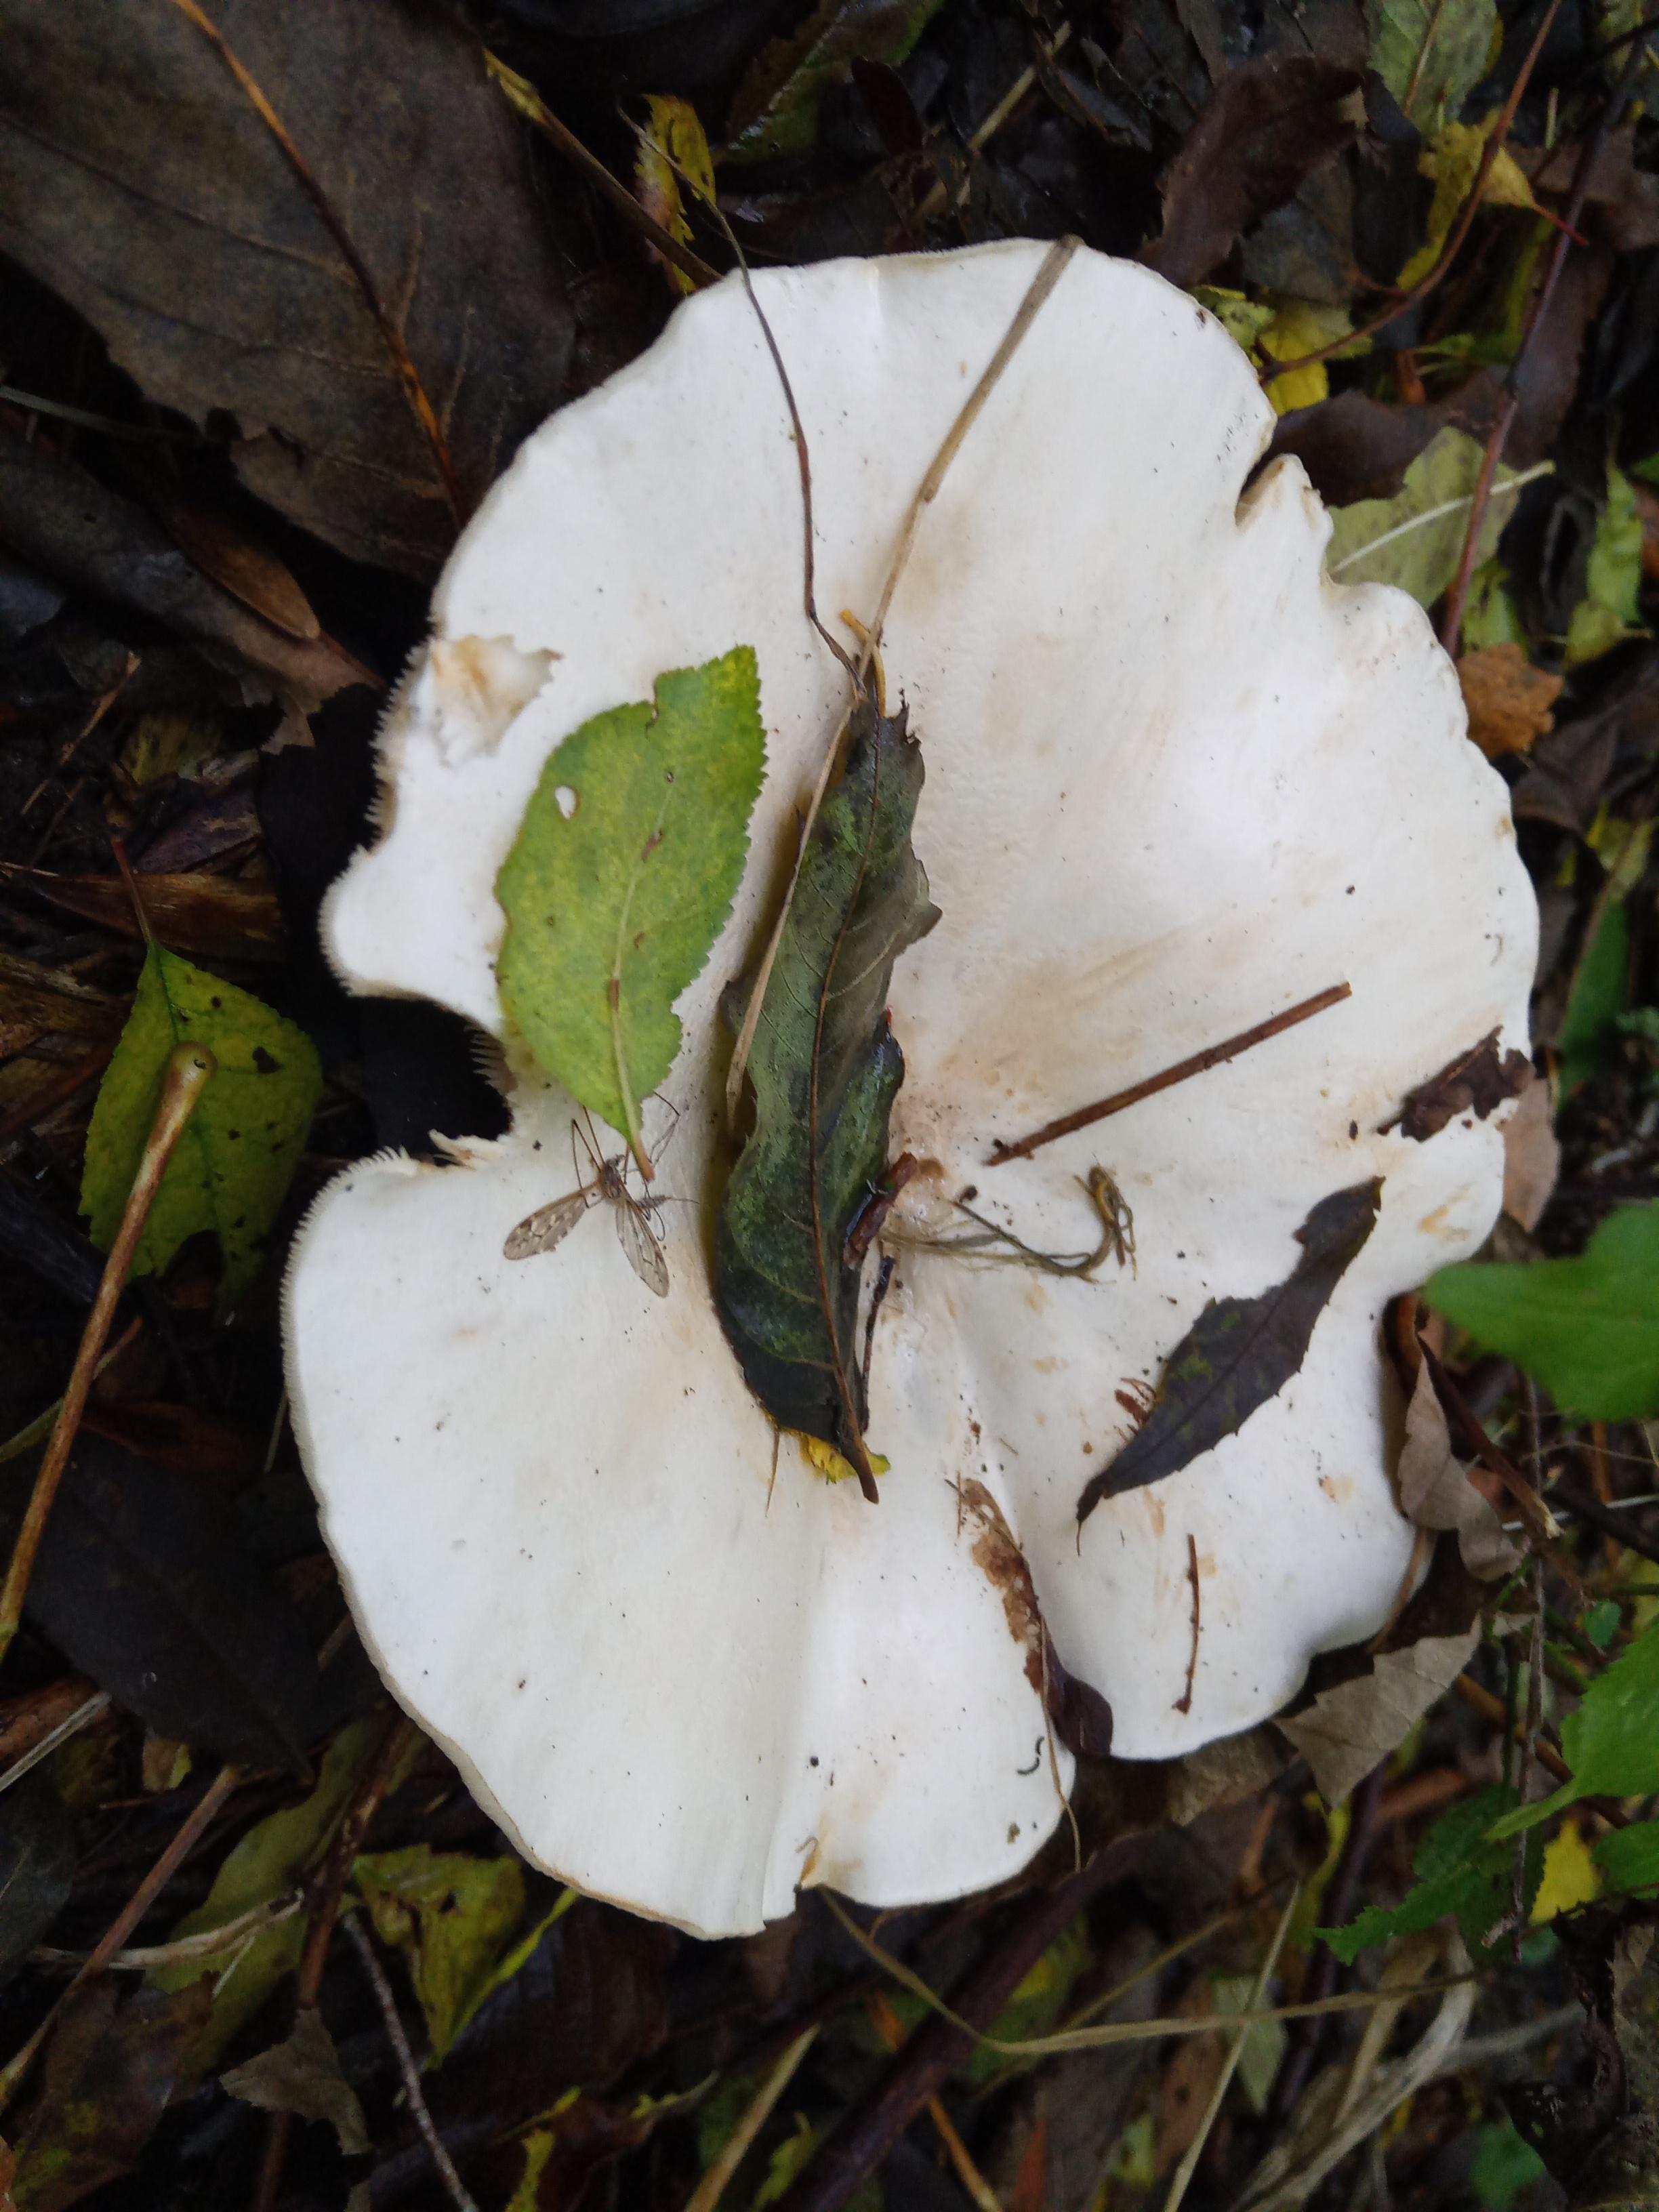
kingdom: Fungi
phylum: Basidiomycota
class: Agaricomycetes
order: Agaricales
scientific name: Agaricales
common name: champignonordenen
